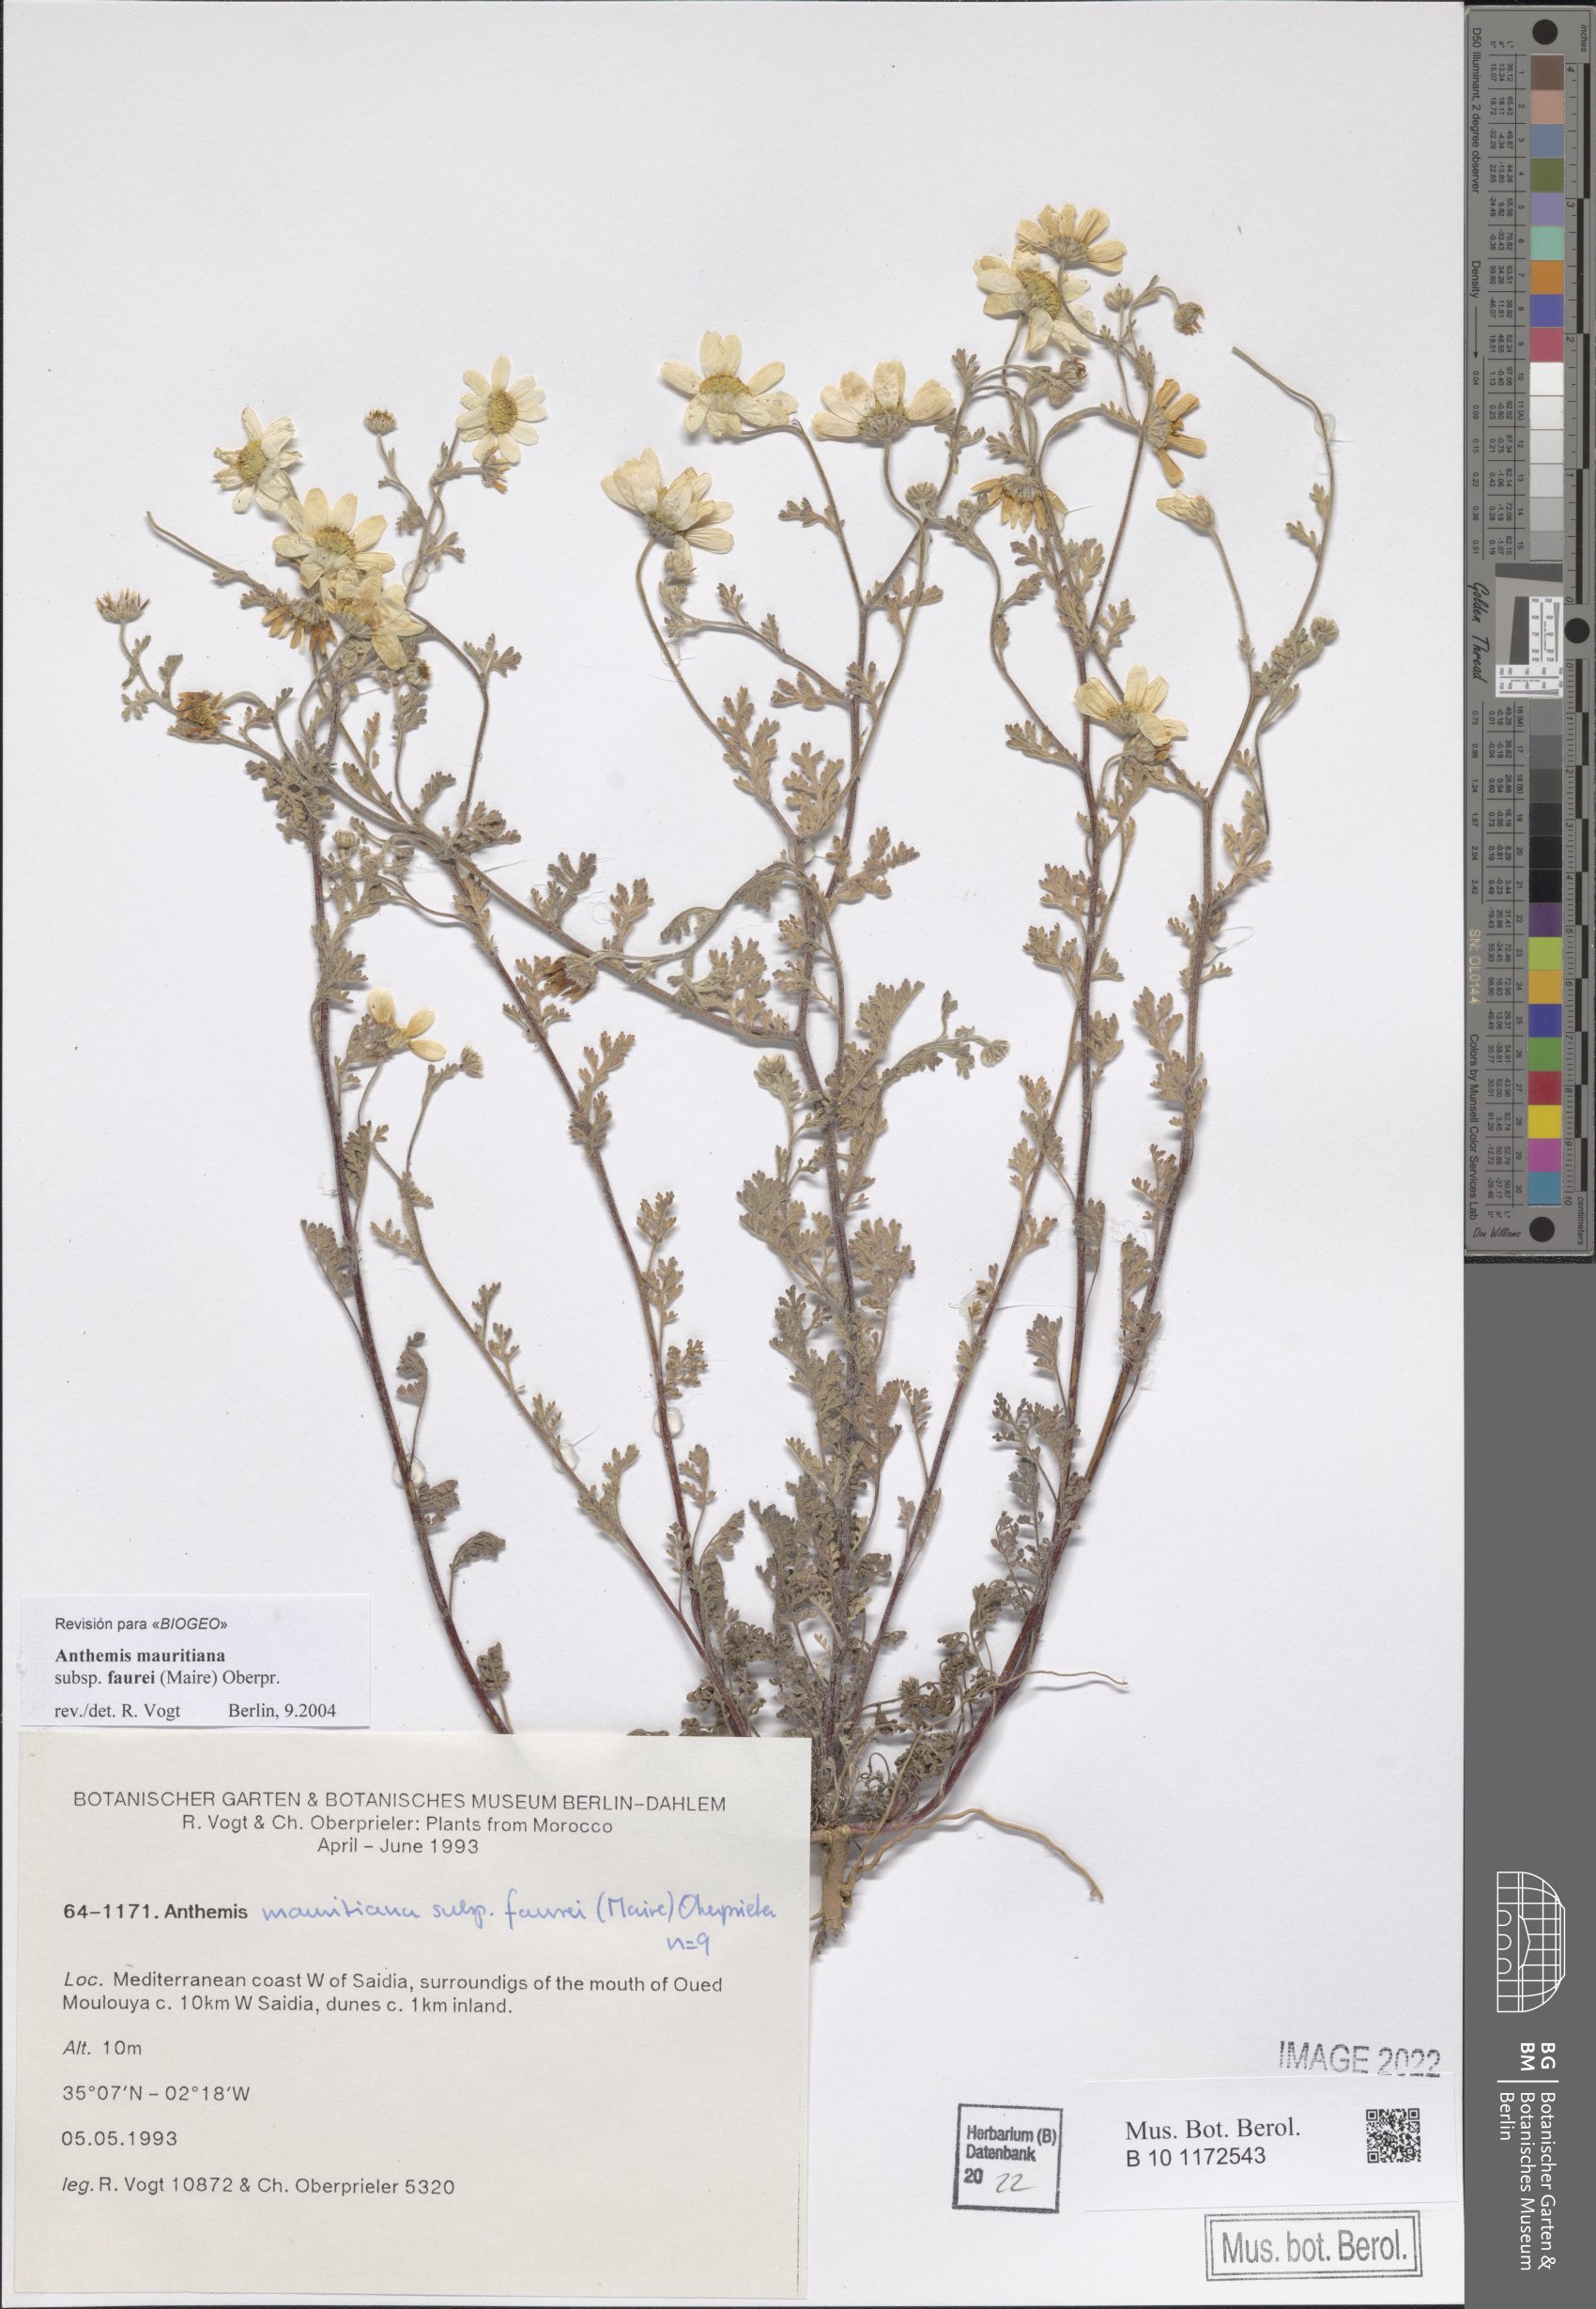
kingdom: Plantae
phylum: Tracheophyta
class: Magnoliopsida
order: Asterales
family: Asteraceae
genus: Anthemis
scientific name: Anthemis mauritiana
